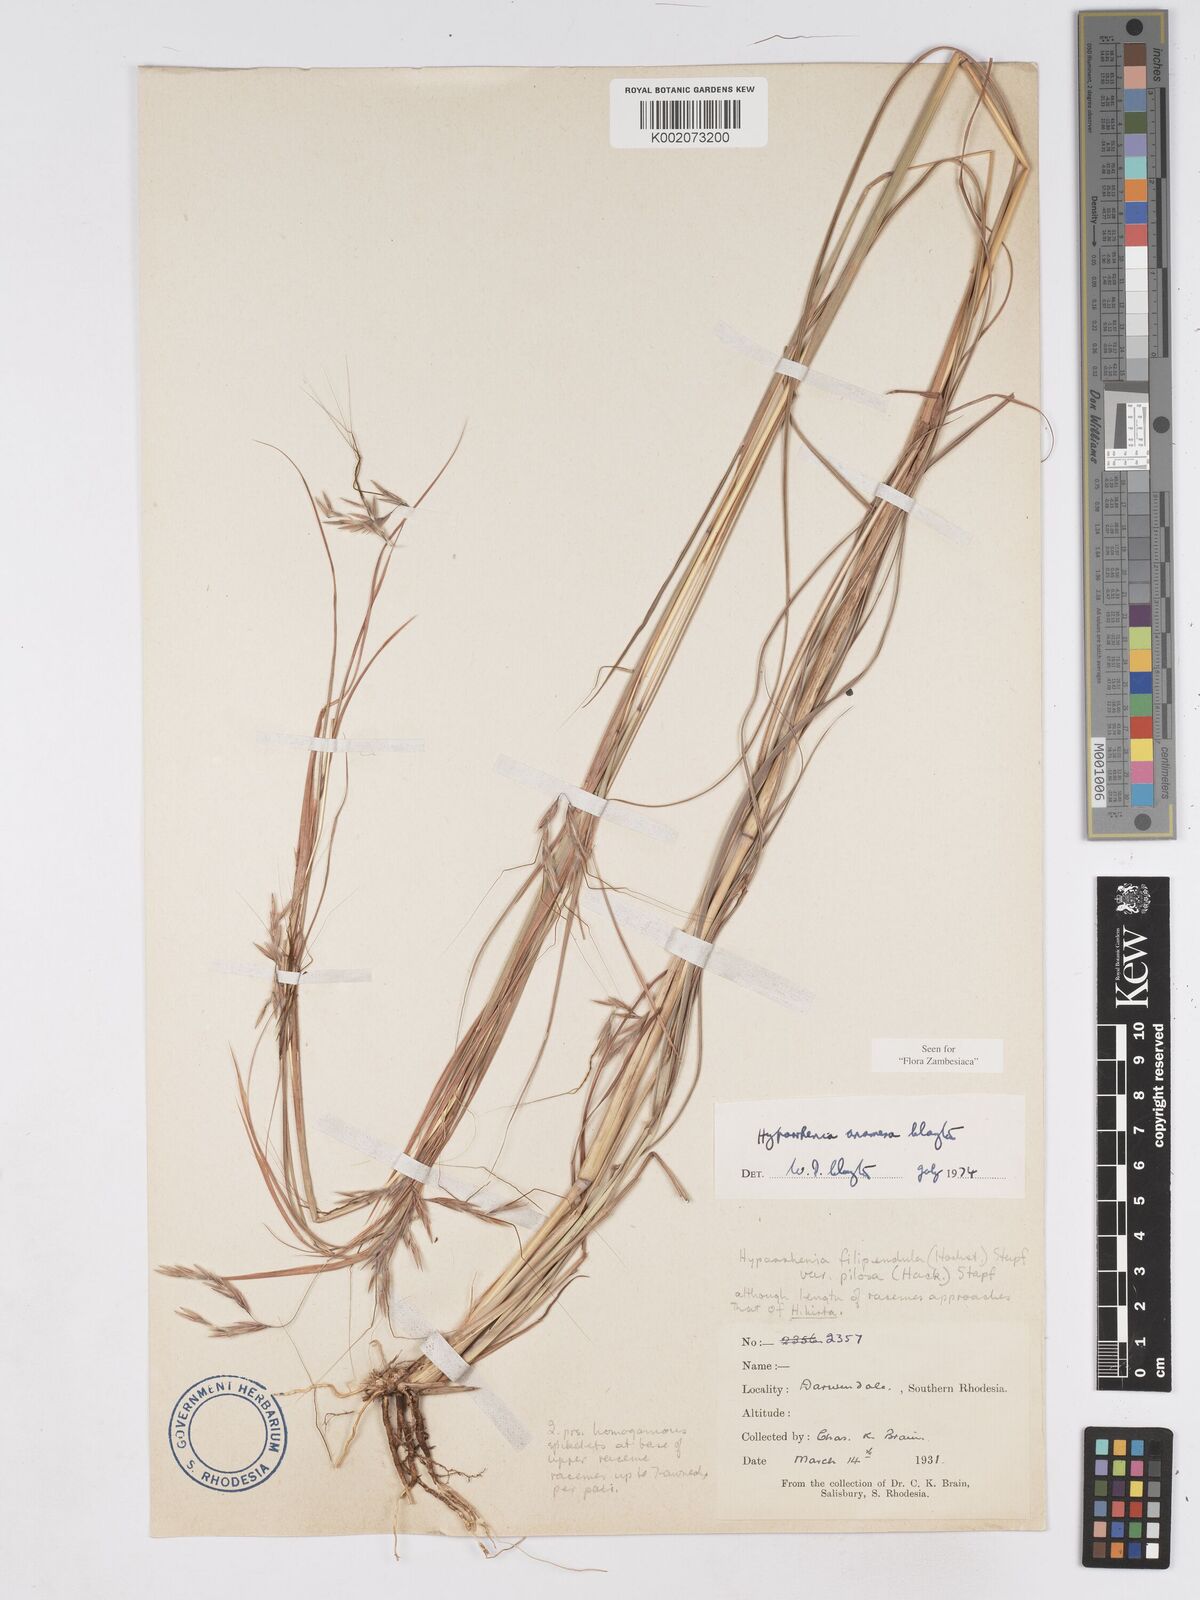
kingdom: Plantae
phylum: Tracheophyta
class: Liliopsida
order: Poales
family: Poaceae
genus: Hyparrhenia
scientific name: Hyparrhenia anamesa
